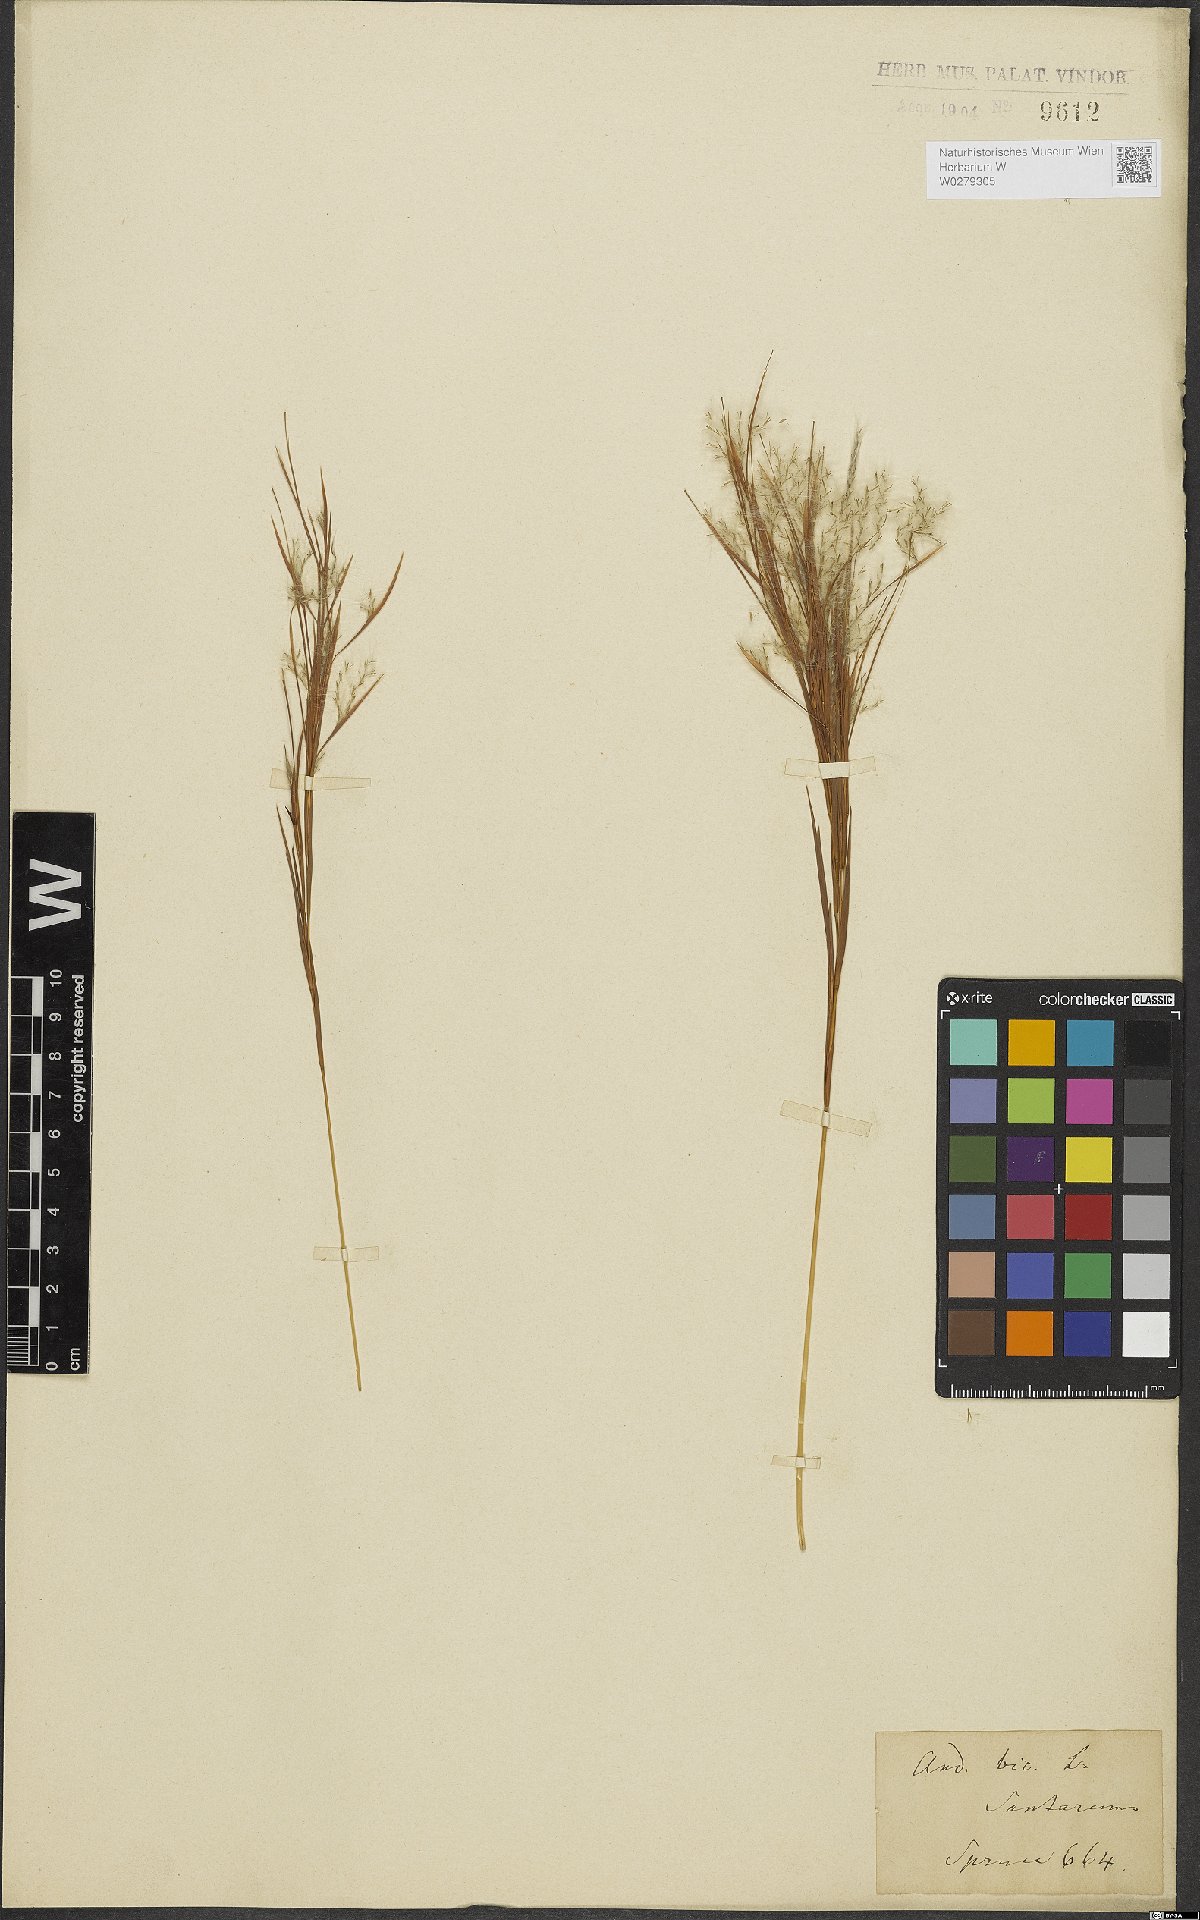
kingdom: Plantae
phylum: Tracheophyta
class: Liliopsida
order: Poales
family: Poaceae
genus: Andropogon
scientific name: Andropogon bicornis
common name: West indian foxtail grass
